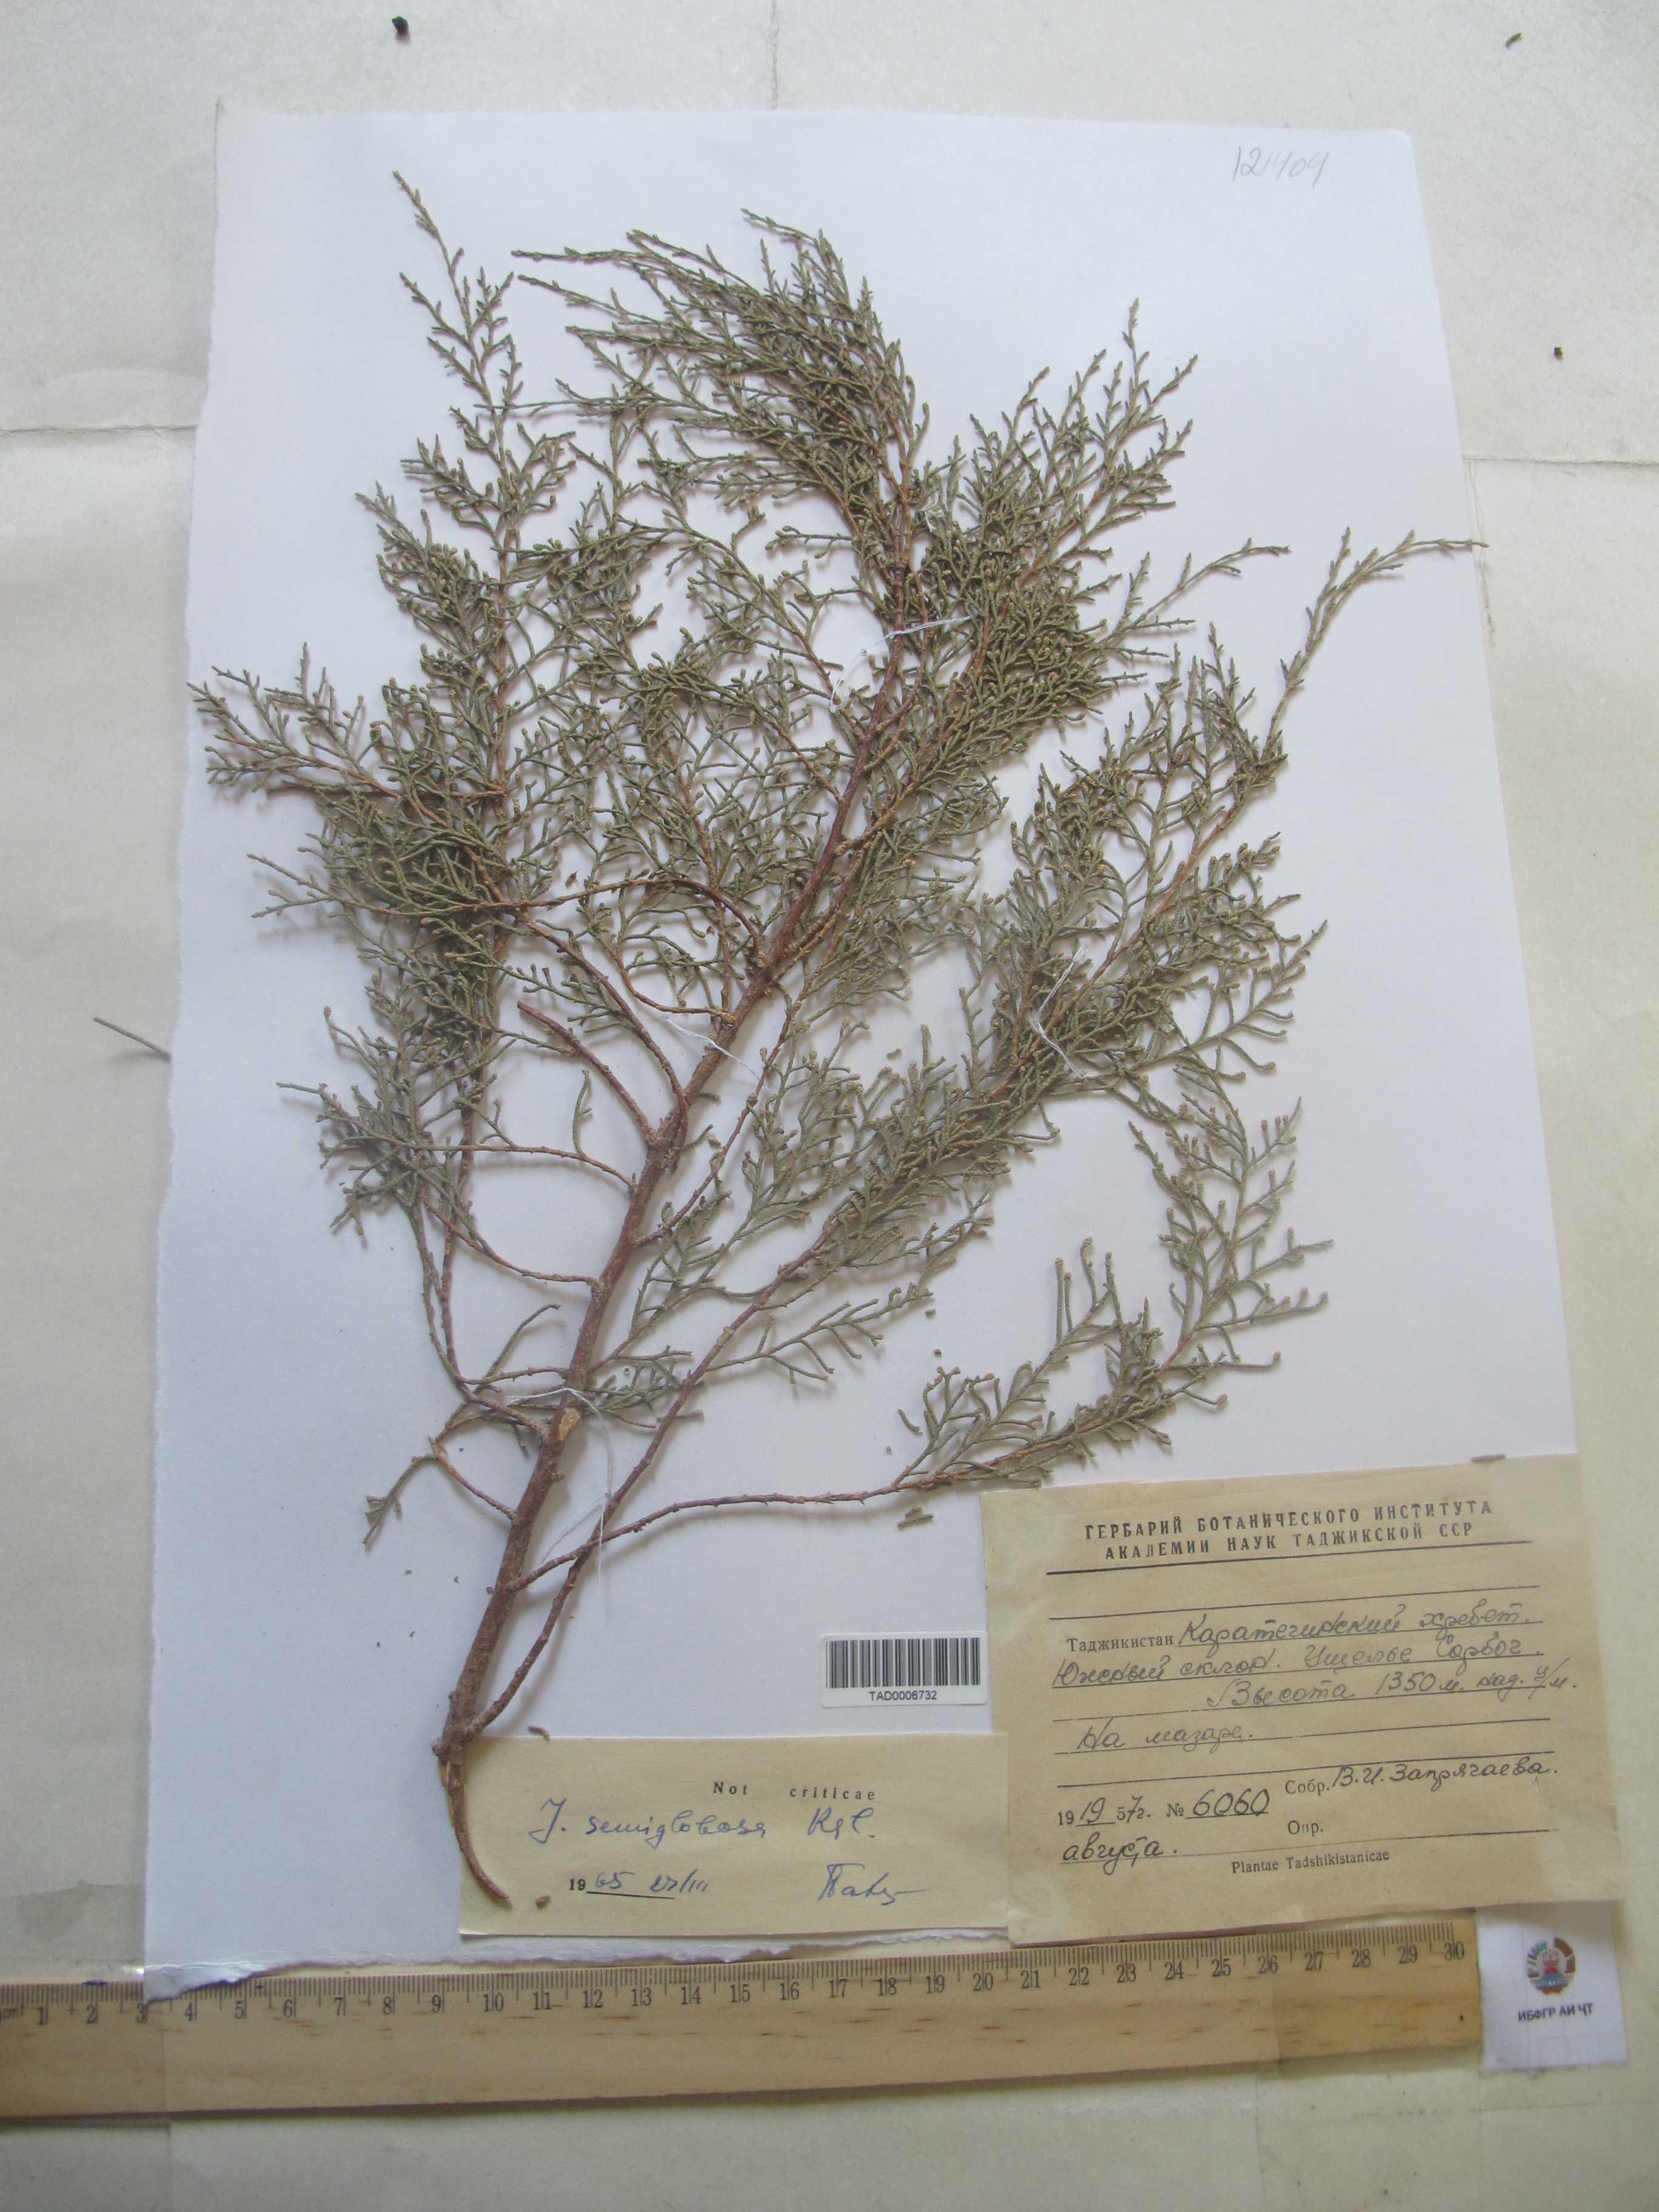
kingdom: Plantae
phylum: Tracheophyta
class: Pinopsida
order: Pinales
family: Cupressaceae
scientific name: Cupressaceae
